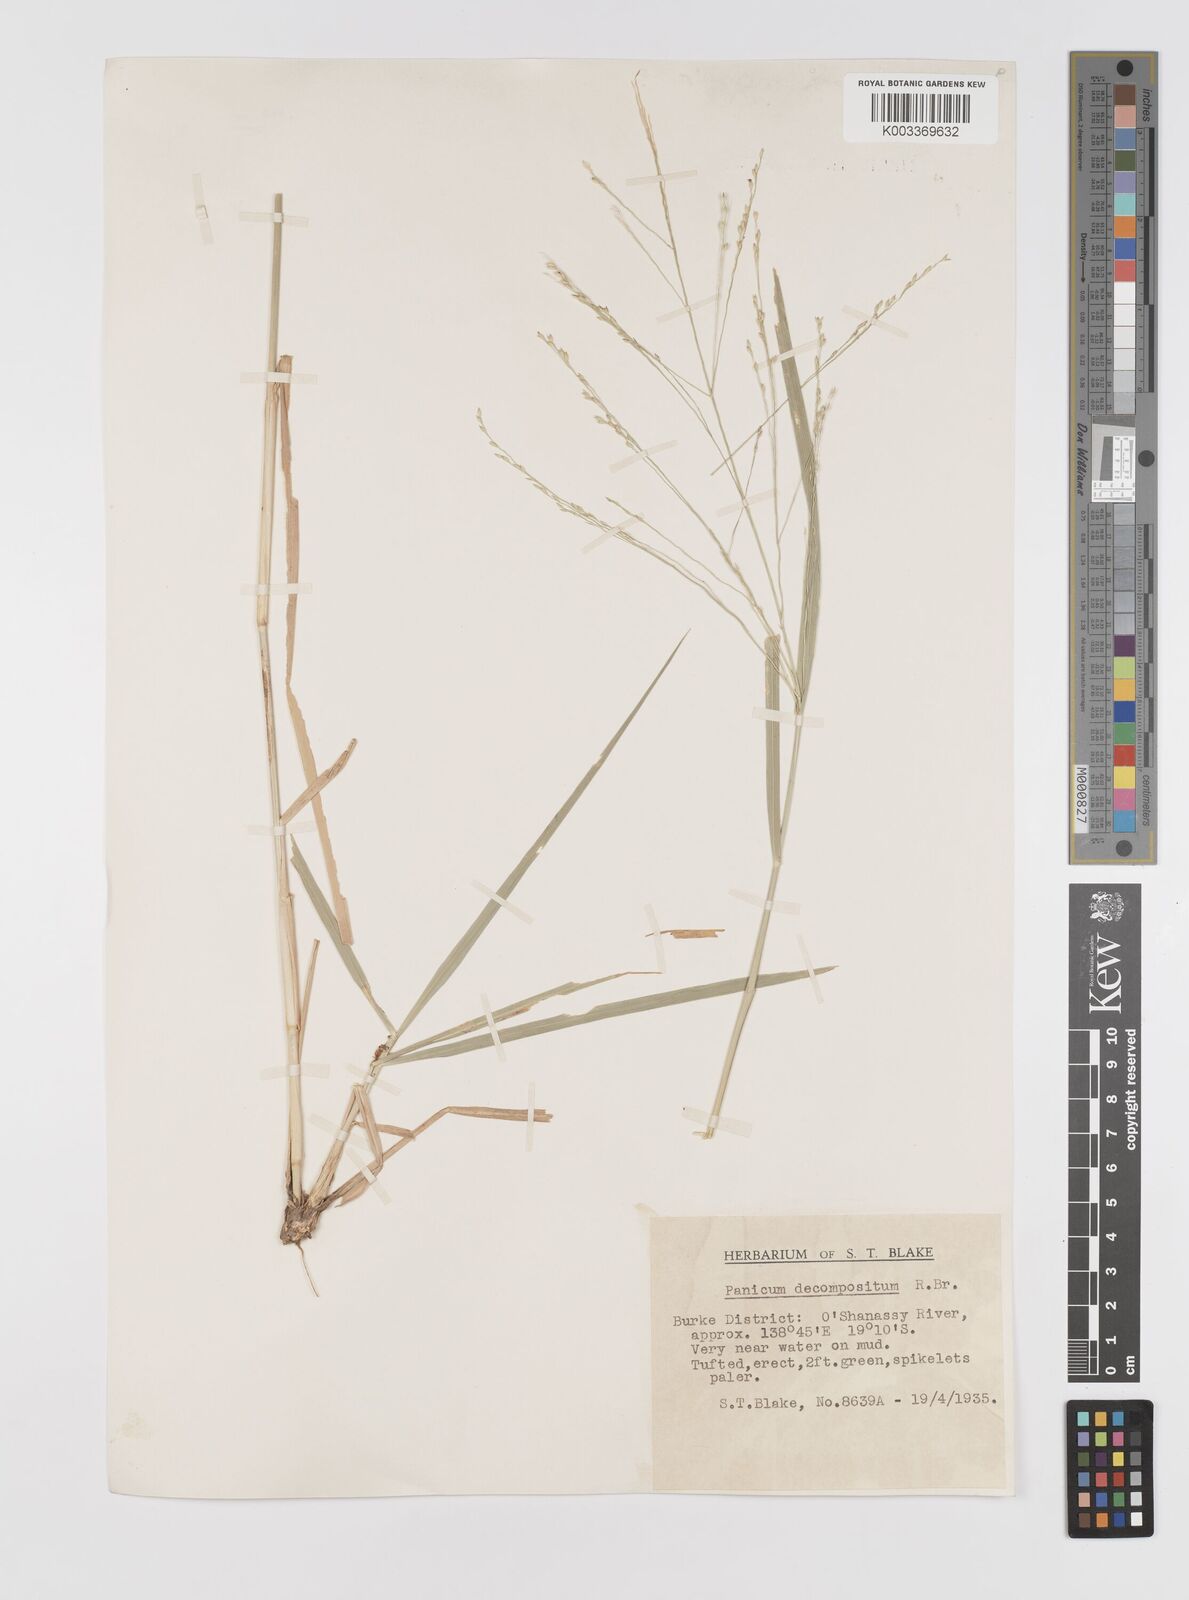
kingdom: Plantae
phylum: Tracheophyta
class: Liliopsida
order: Poales
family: Poaceae
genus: Panicum
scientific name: Panicum decompositum
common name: Australian millet
